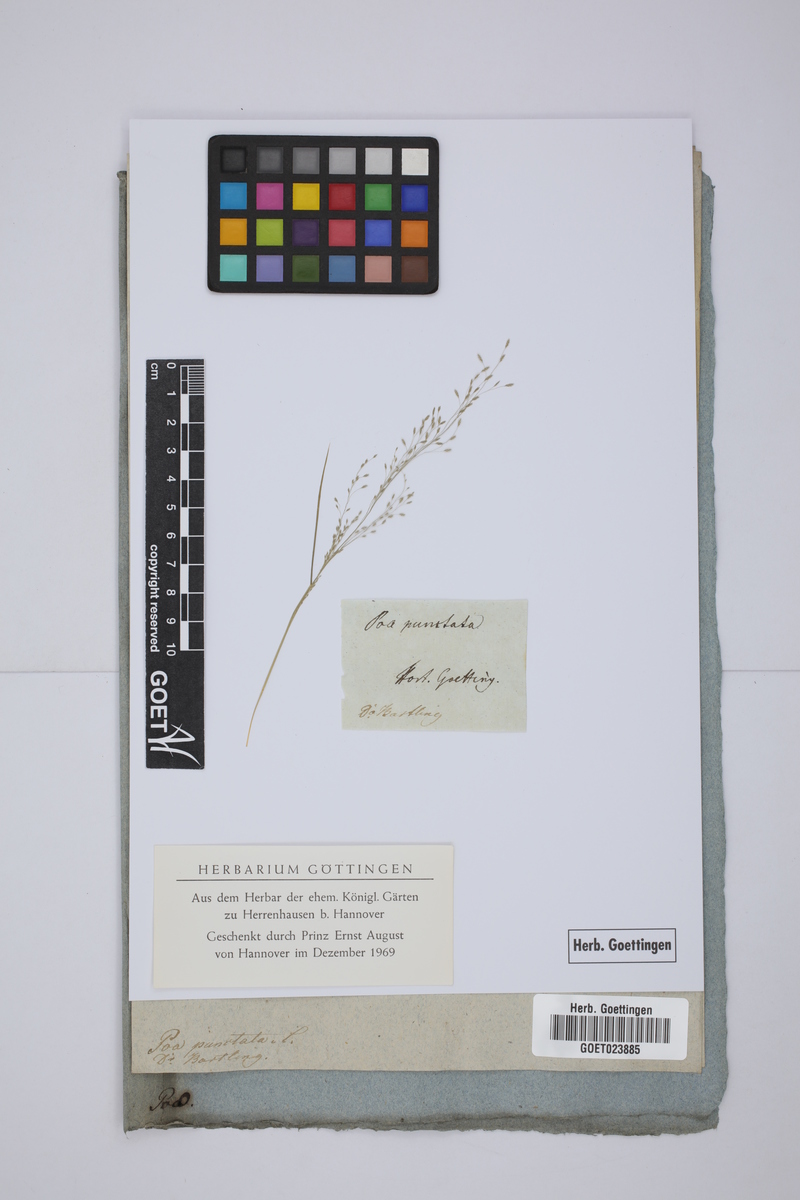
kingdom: Plantae
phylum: Tracheophyta
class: Liliopsida
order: Poales
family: Poaceae
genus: Eragrostis
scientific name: Eragrostis pilosa
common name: Indian lovegrass
